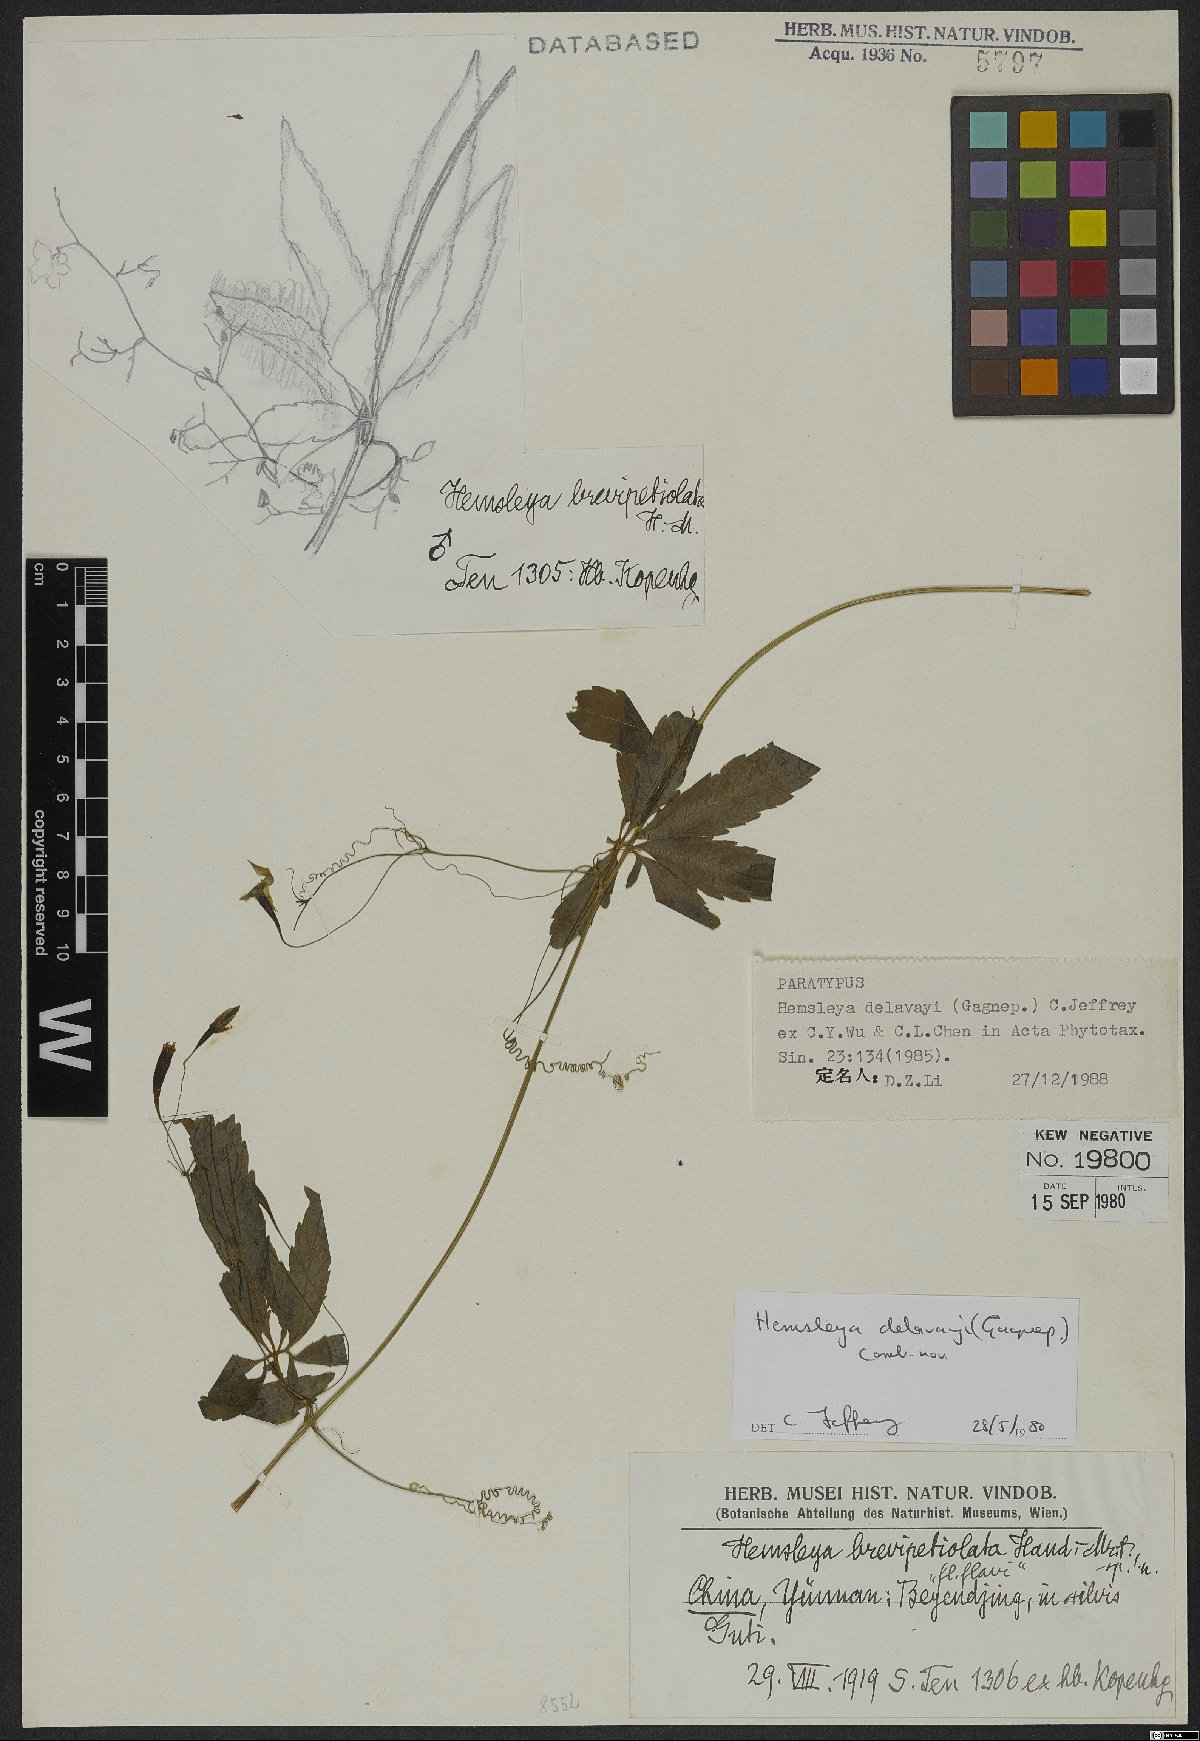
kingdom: Plantae
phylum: Tracheophyta
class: Magnoliopsida
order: Cucurbitales
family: Cucurbitaceae
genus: Hemsleya
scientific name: Hemsleya delavayi
